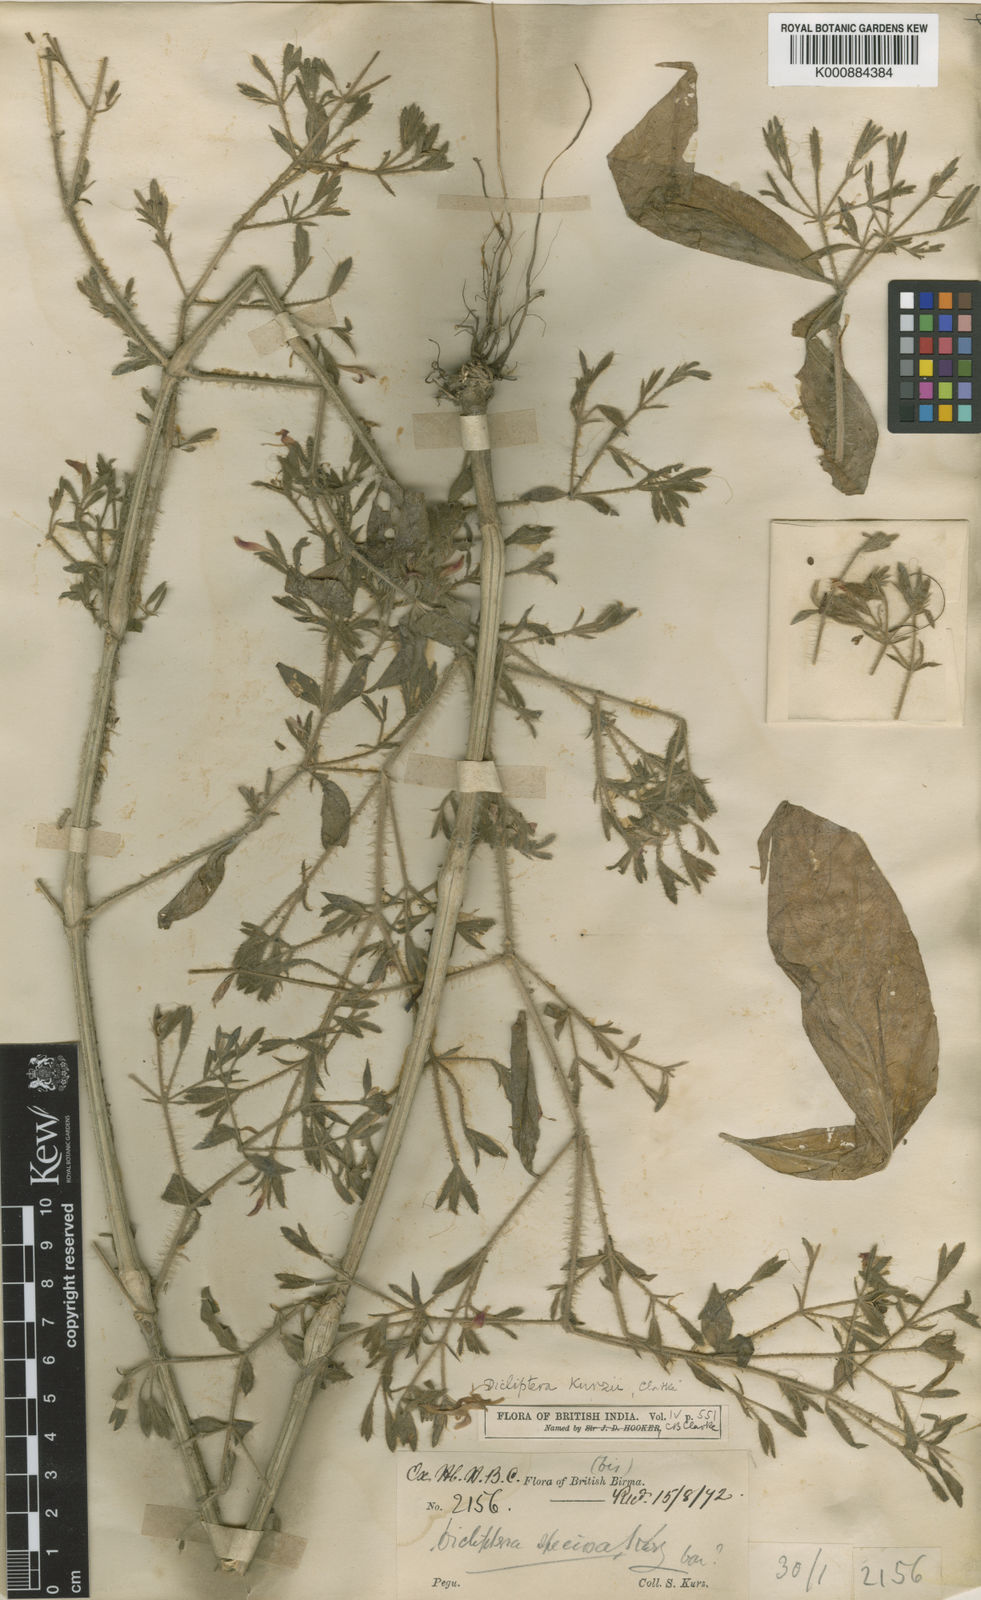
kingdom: Plantae
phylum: Tracheophyta
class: Magnoliopsida
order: Lamiales
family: Acanthaceae
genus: Dicliptera
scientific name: Dicliptera kurzii
